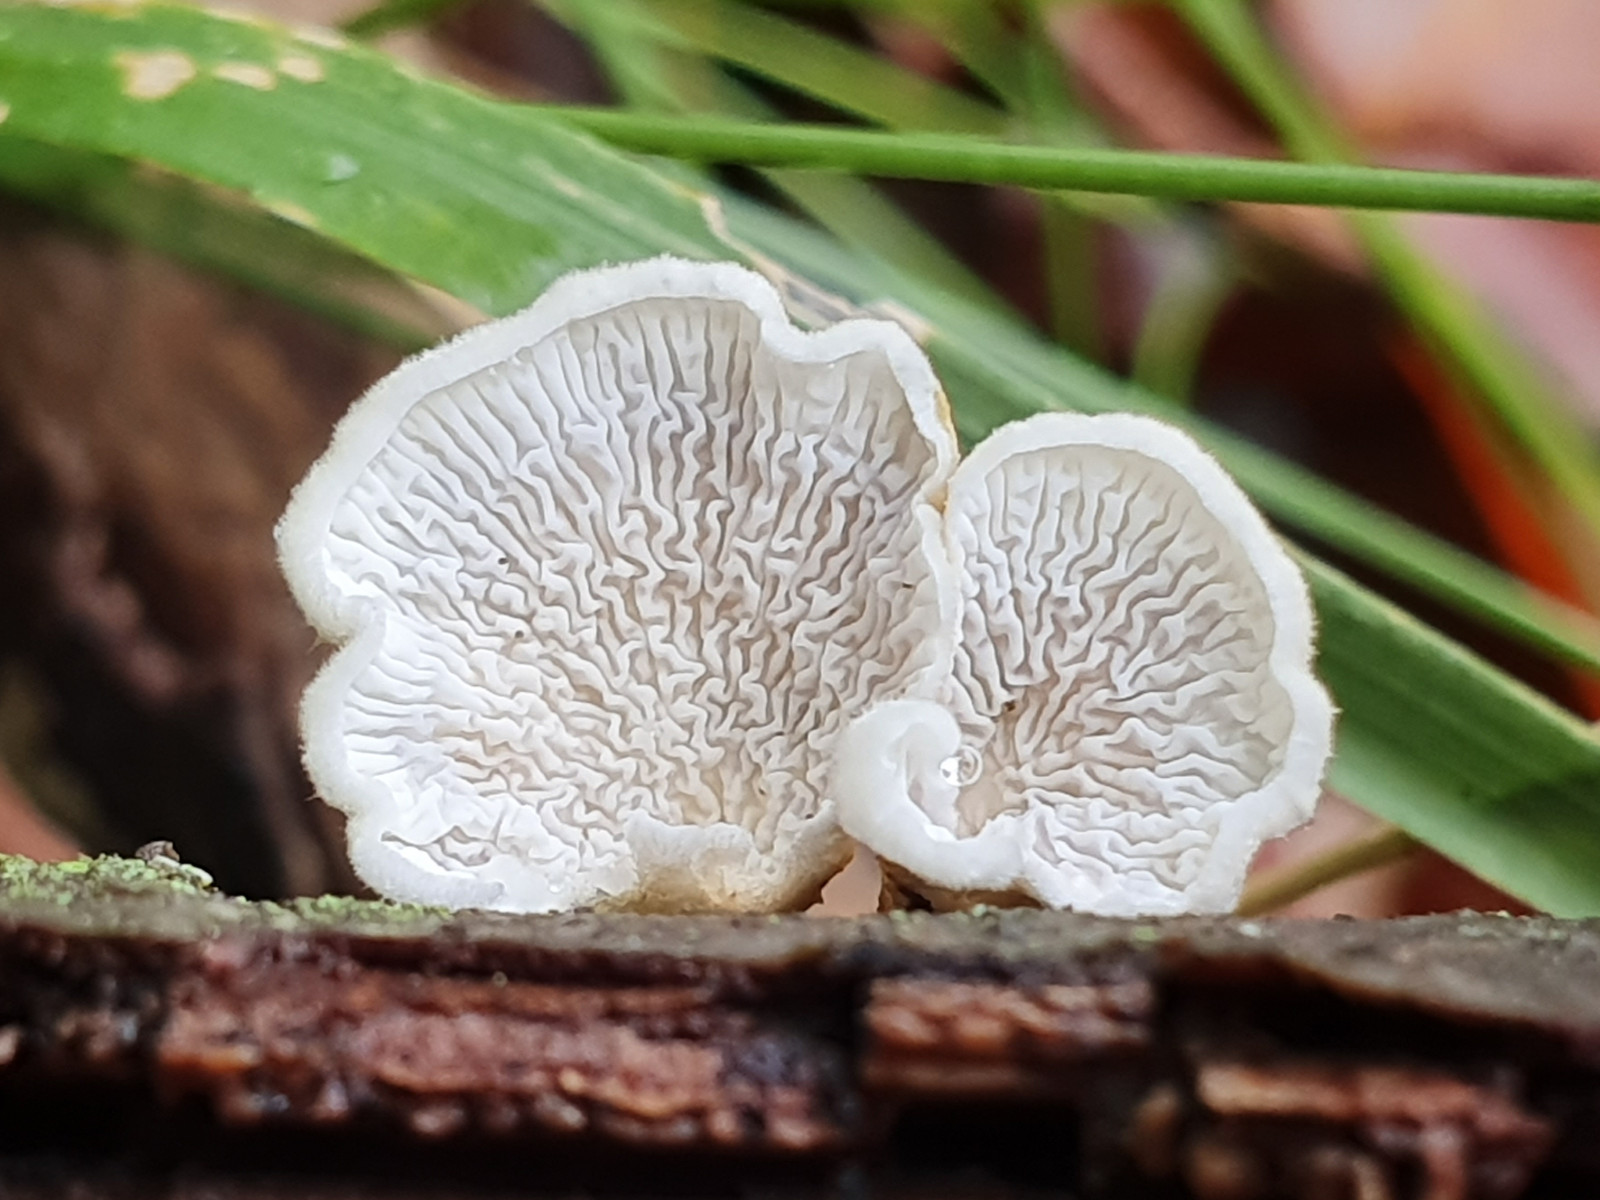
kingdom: Fungi
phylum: Basidiomycota
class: Agaricomycetes
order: Amylocorticiales
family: Amylocorticiaceae
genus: Plicaturopsis
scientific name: Plicaturopsis crispa
